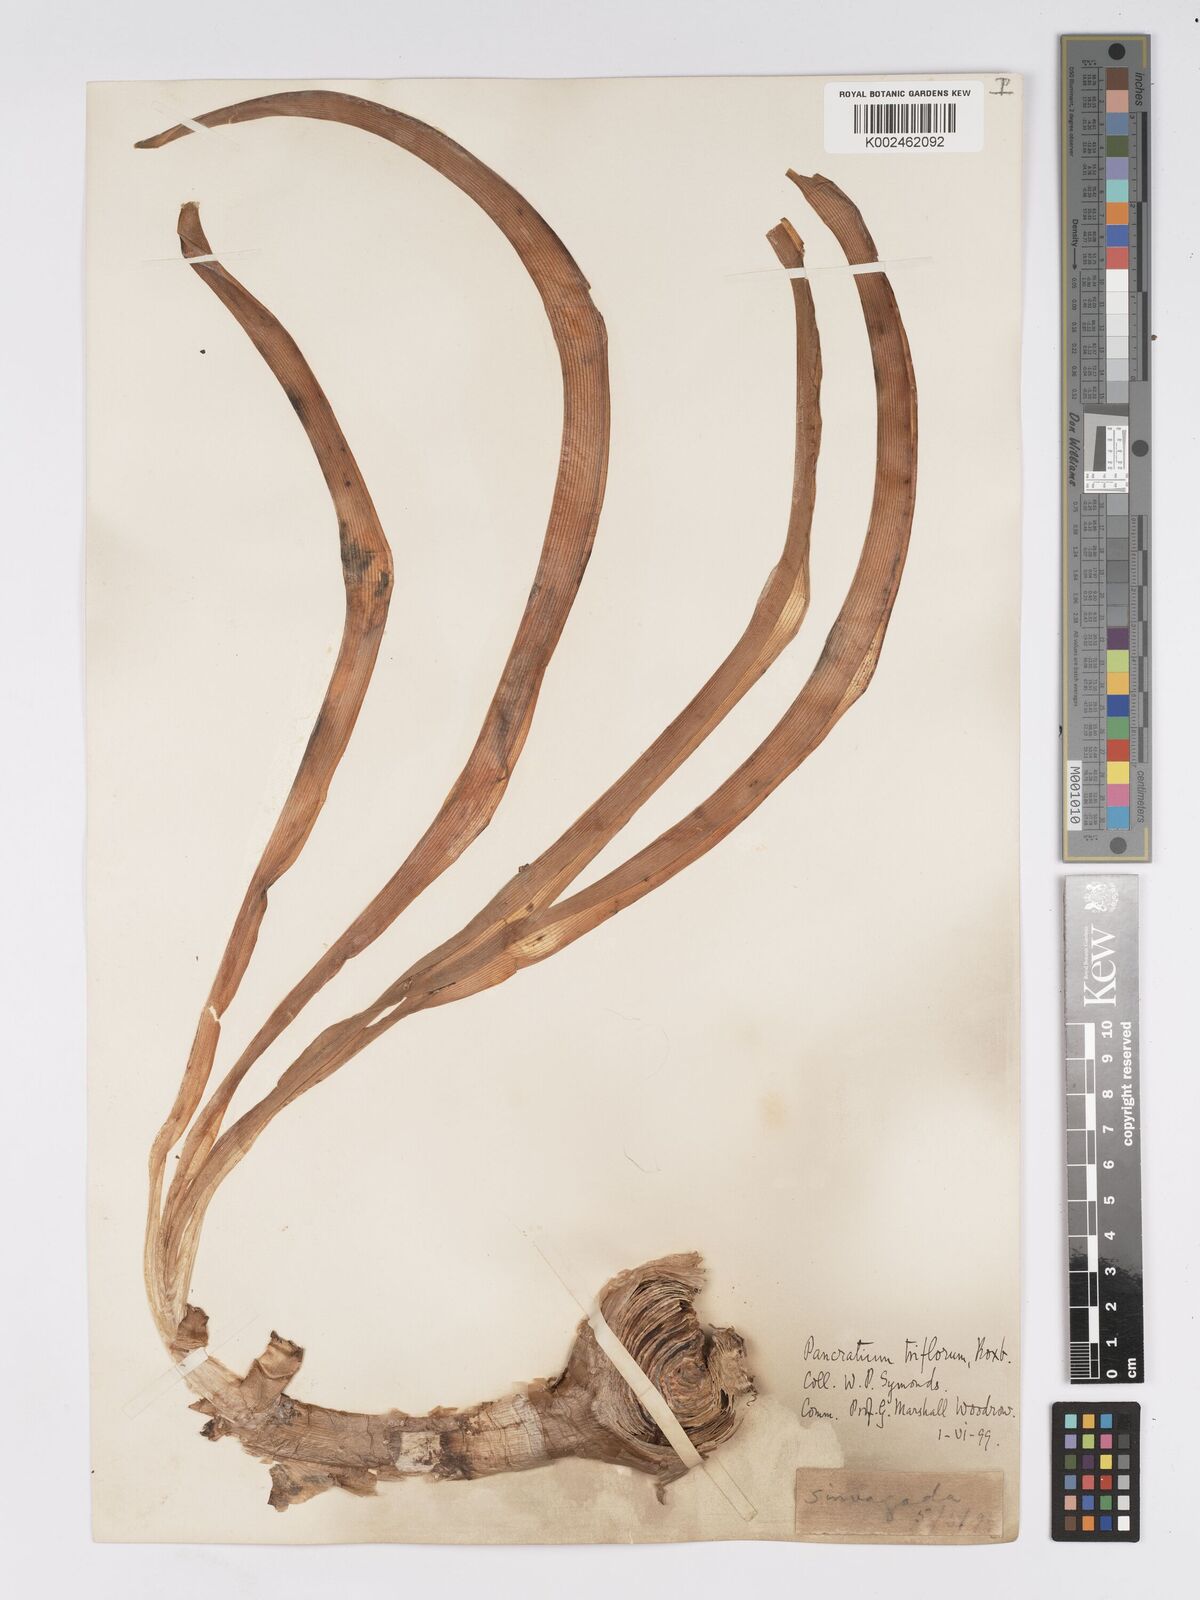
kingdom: Plantae
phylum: Tracheophyta
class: Liliopsida
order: Asparagales
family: Amaryllidaceae
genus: Pancratium
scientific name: Pancratium triflorum
